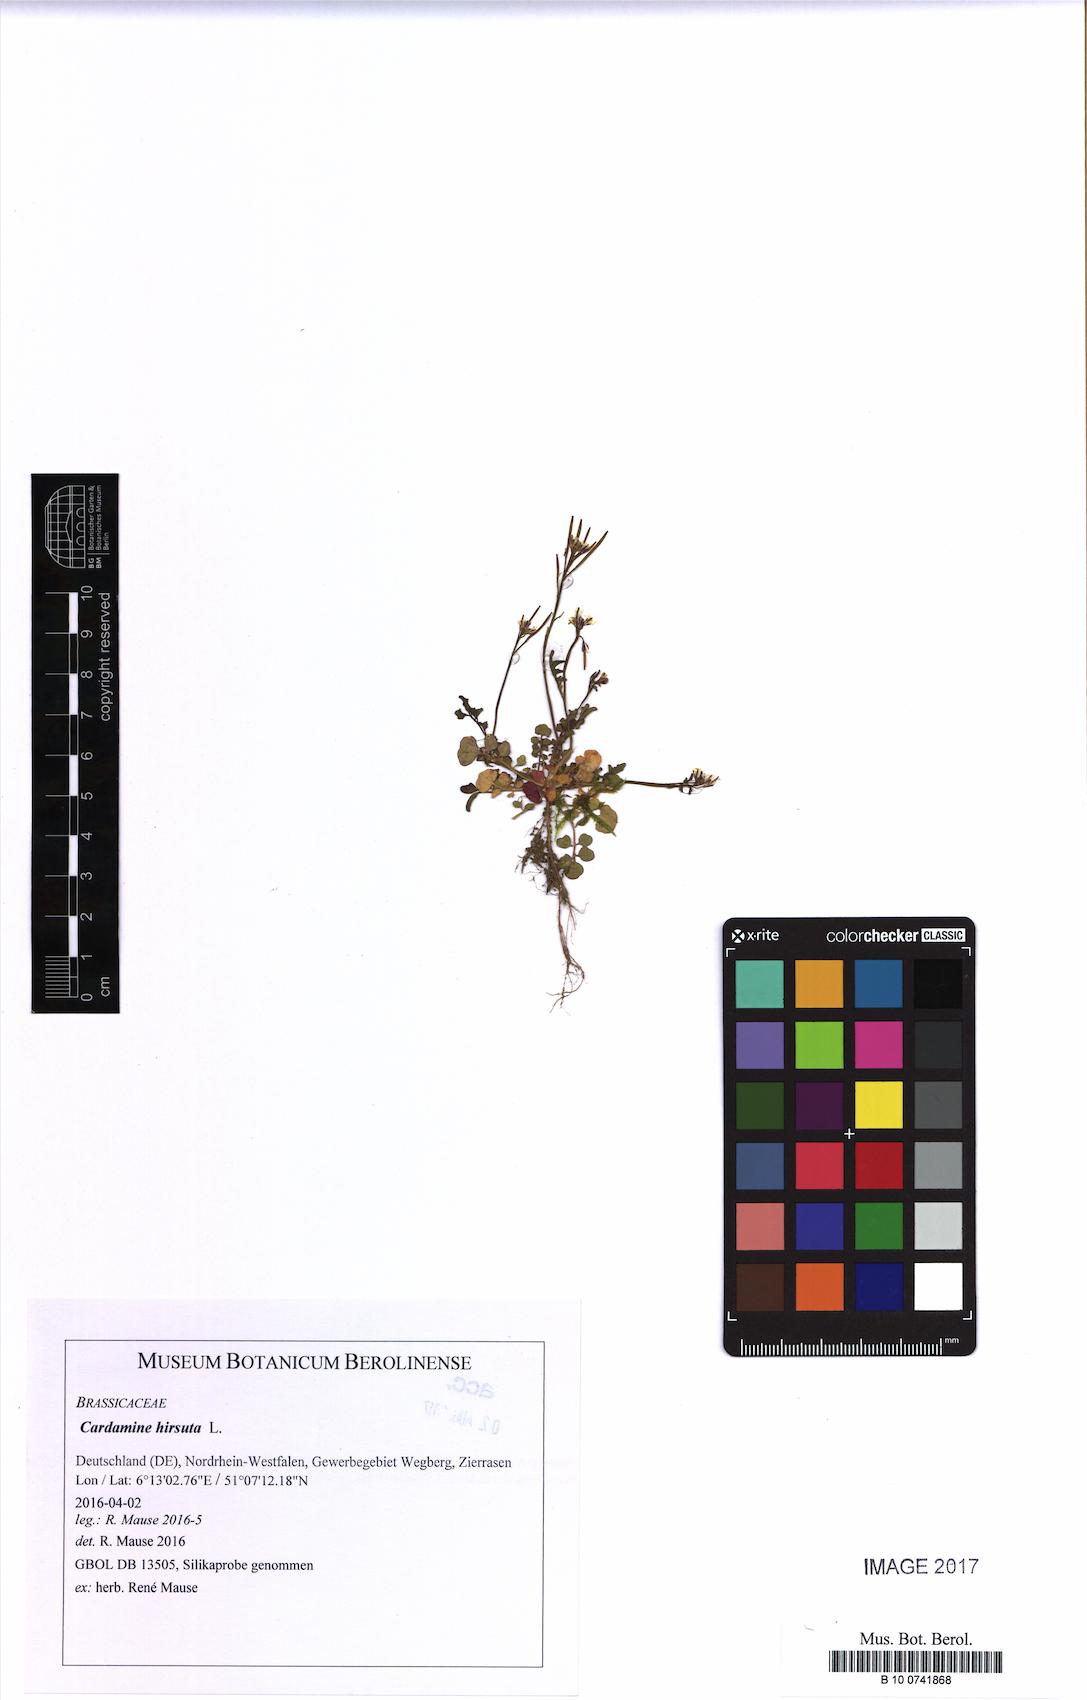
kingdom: Plantae
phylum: Tracheophyta
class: Magnoliopsida
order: Brassicales
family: Brassicaceae
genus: Cardamine
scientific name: Cardamine hirsuta
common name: Hairy bittercress
